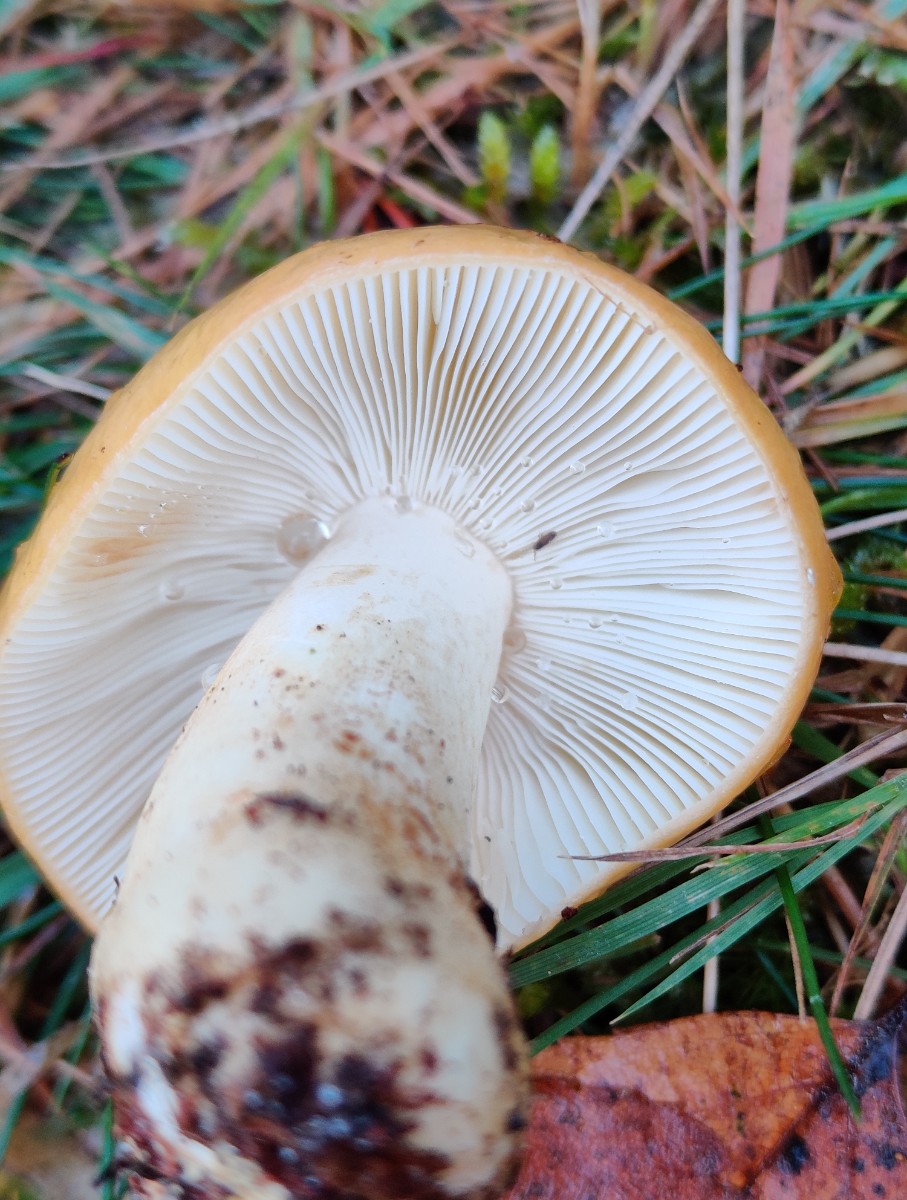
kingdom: Fungi
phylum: Basidiomycota
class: Agaricomycetes
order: Russulales
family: Russulaceae
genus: Russula
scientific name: Russula ochroleuca
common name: okkergul skørhat
